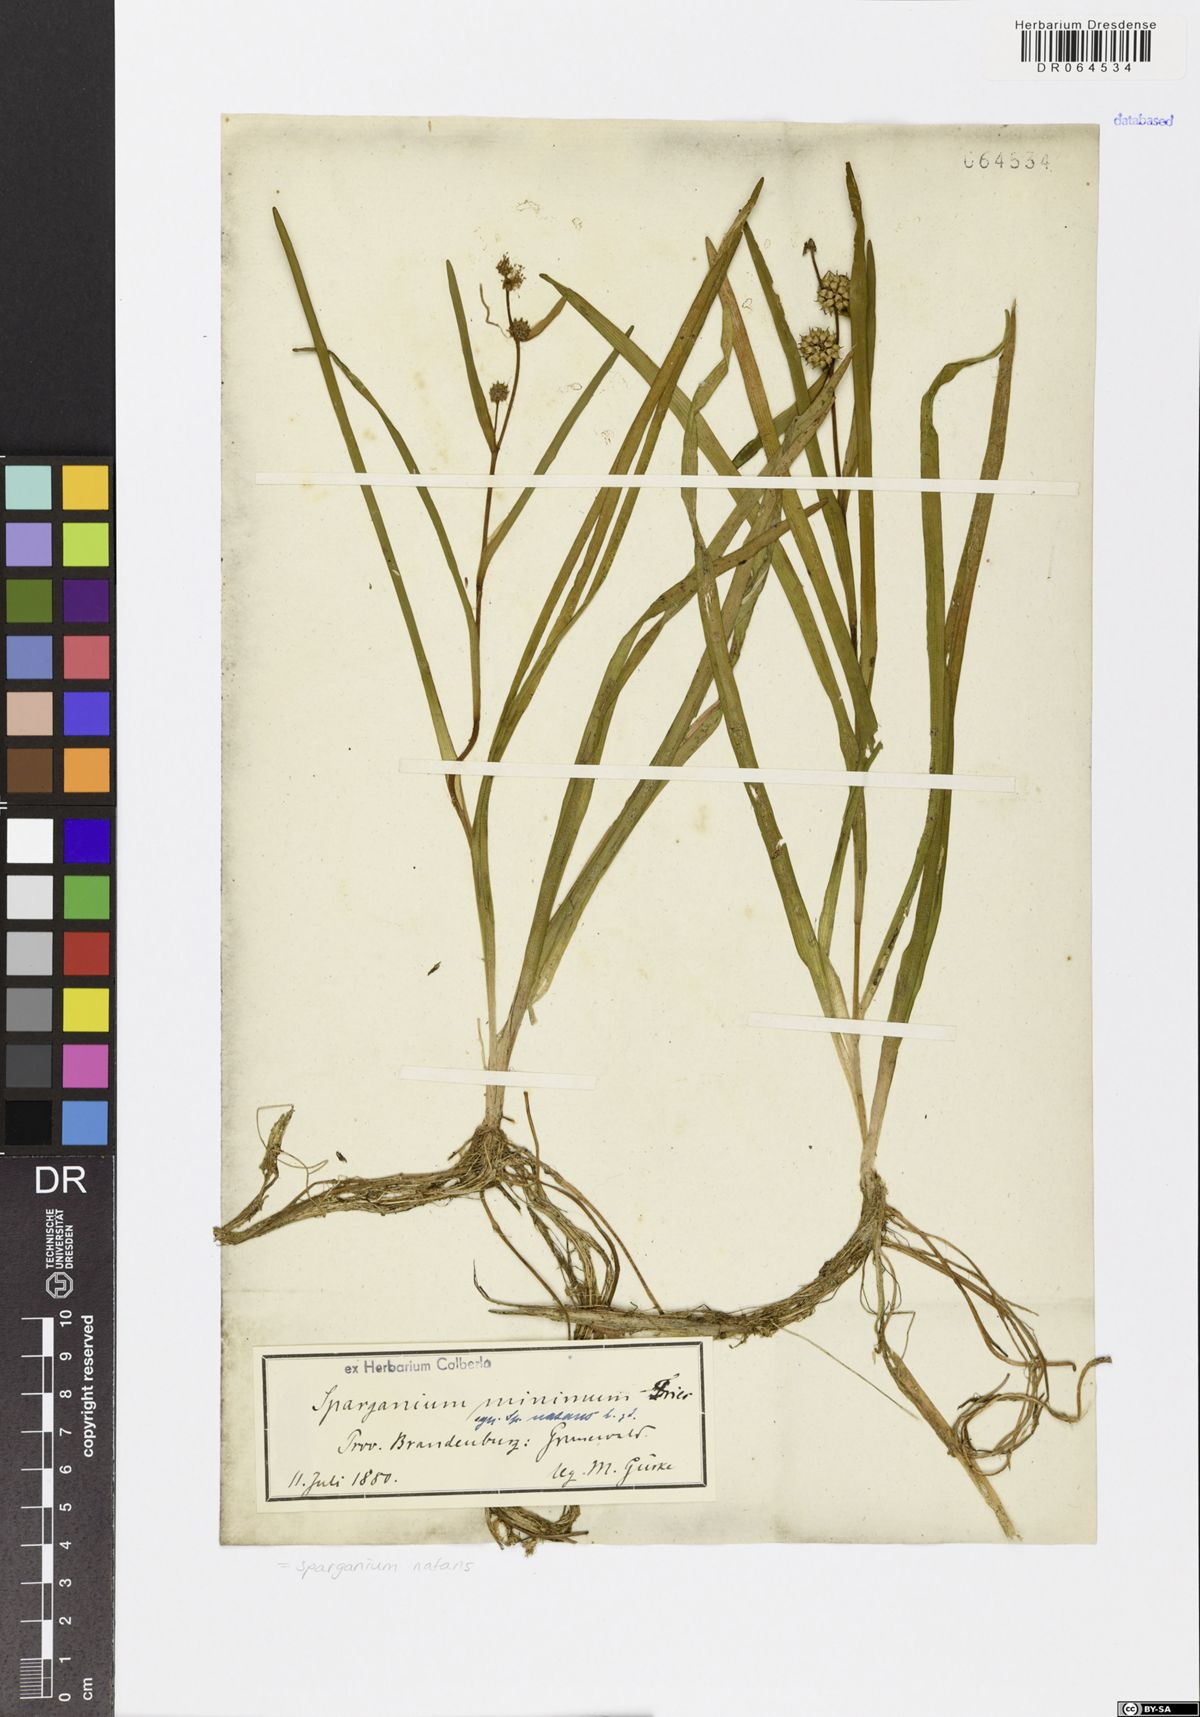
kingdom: Plantae
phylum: Tracheophyta
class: Liliopsida
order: Poales
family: Typhaceae
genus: Sparganium
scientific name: Sparganium natans
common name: Least bur-reed
